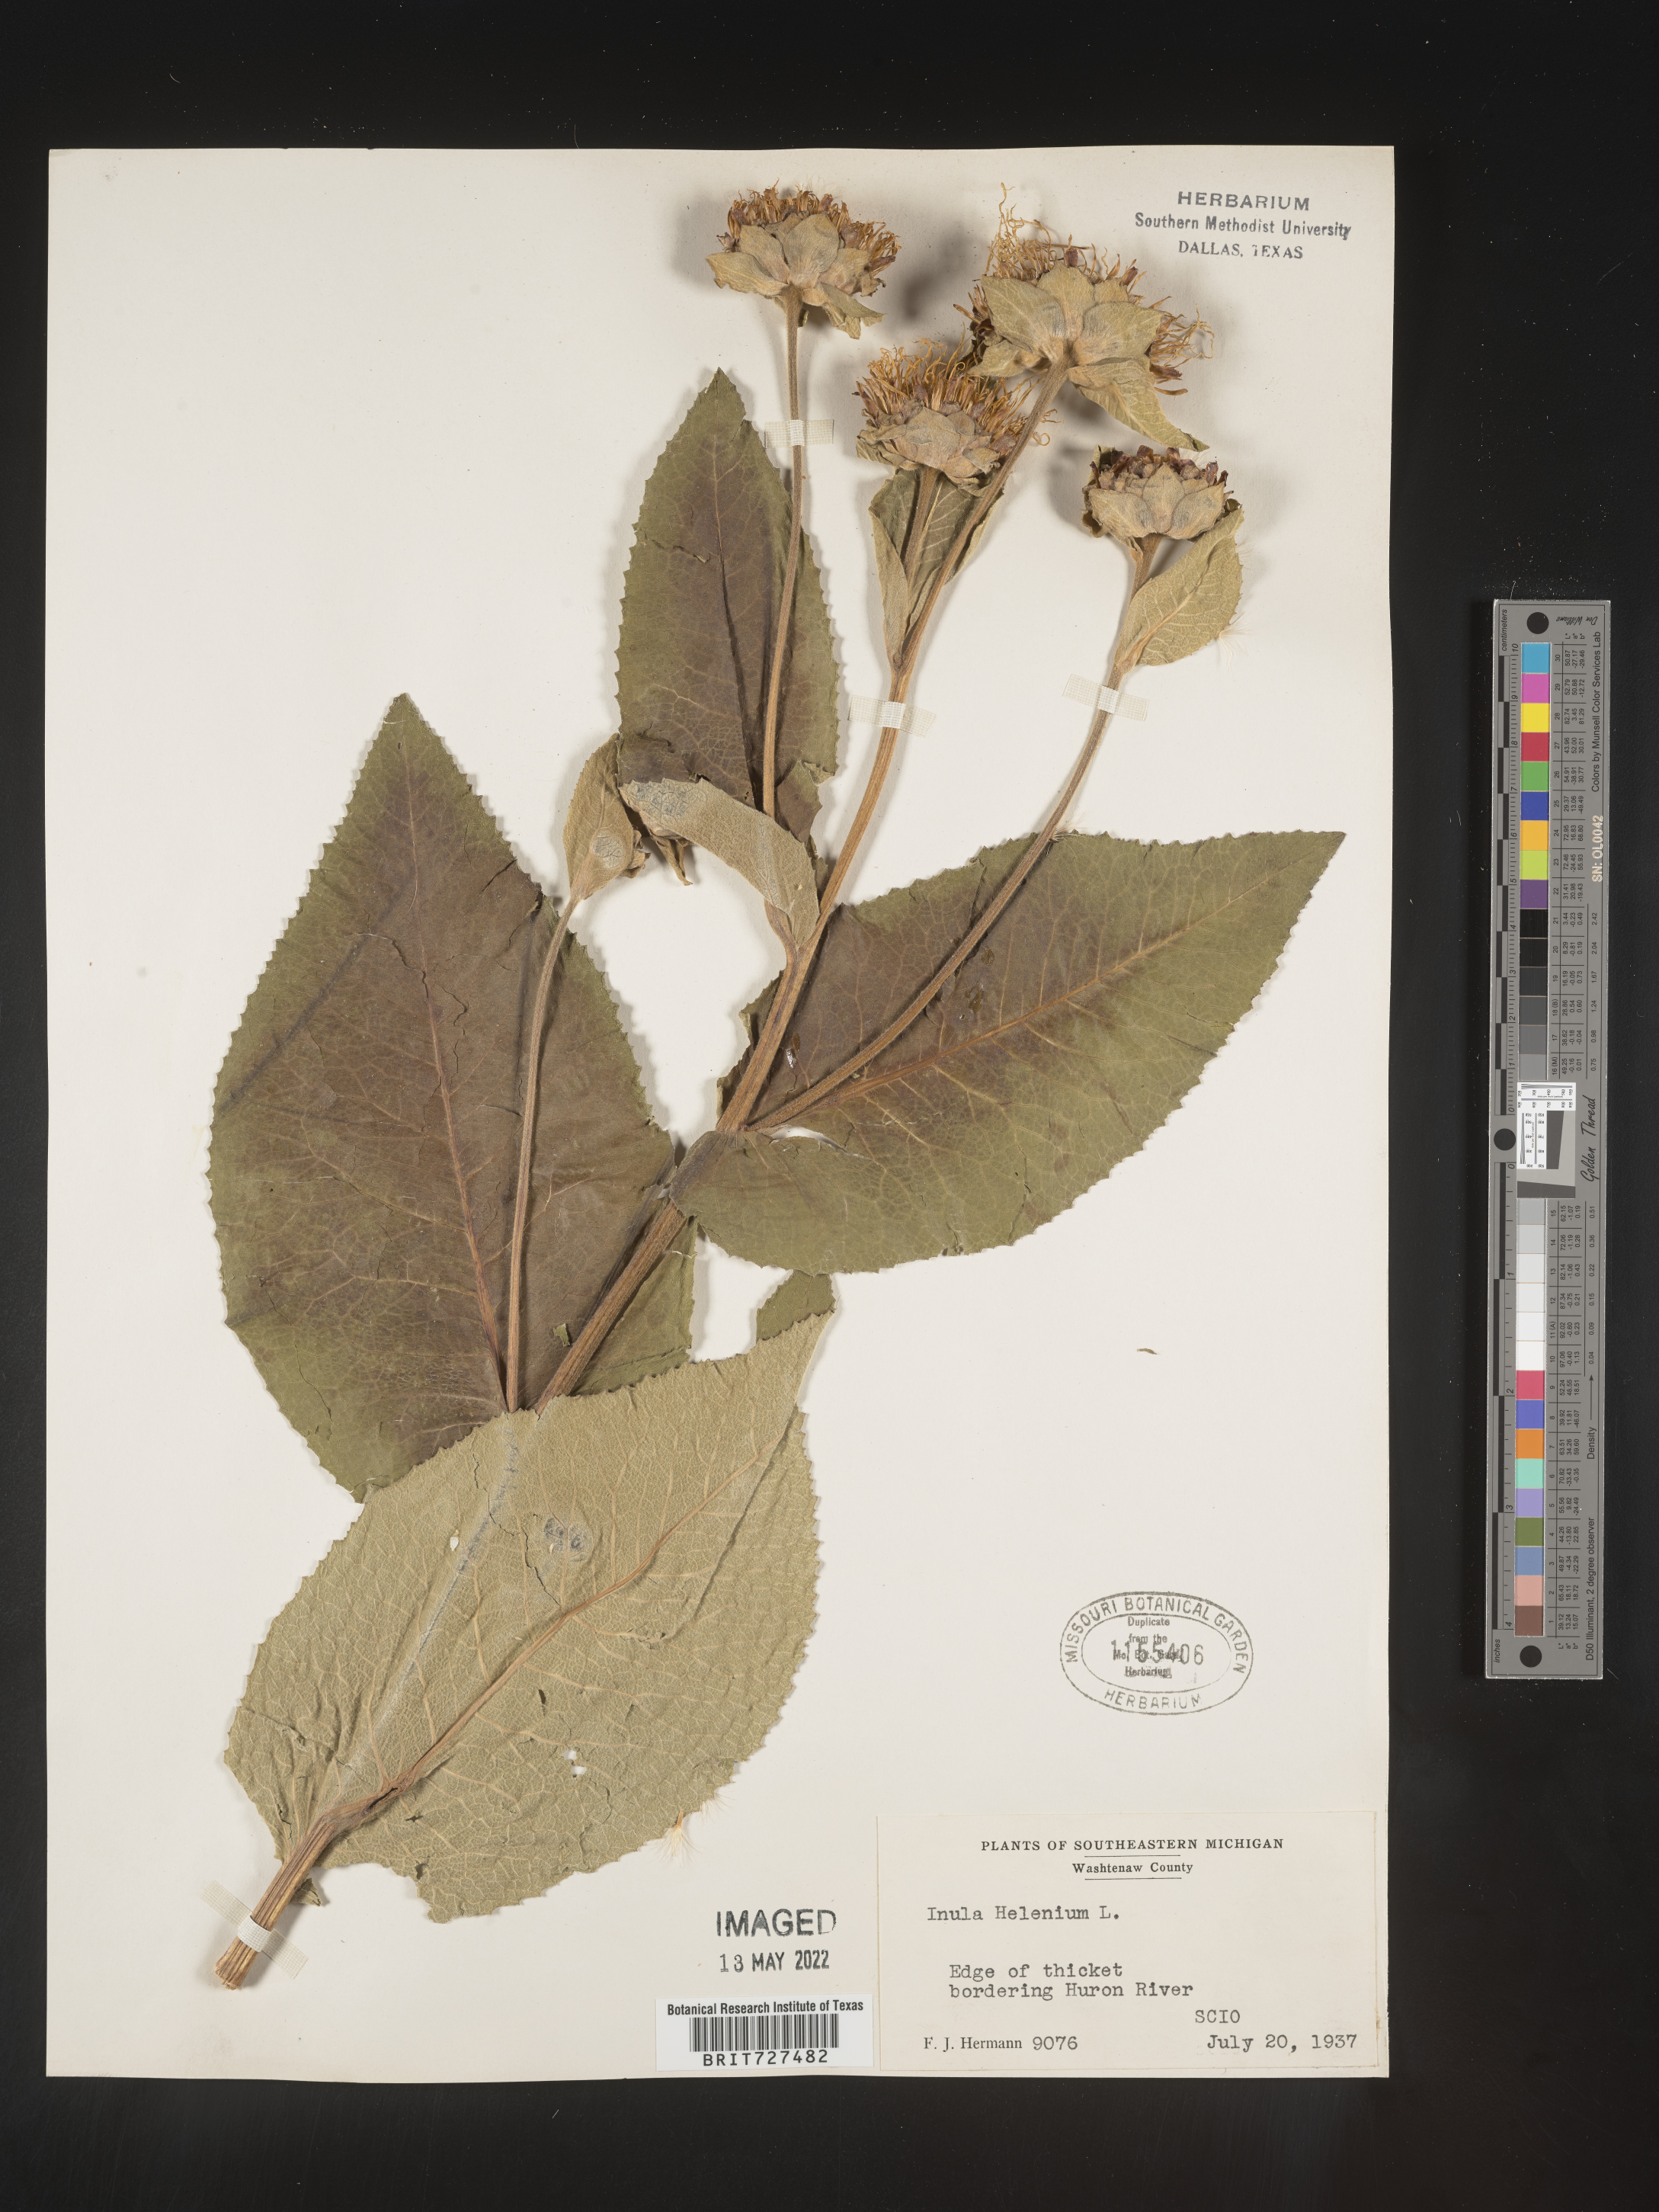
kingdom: Plantae
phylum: Tracheophyta
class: Magnoliopsida
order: Asterales
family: Asteraceae
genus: Inula
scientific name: Inula helenium
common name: Elecampane
